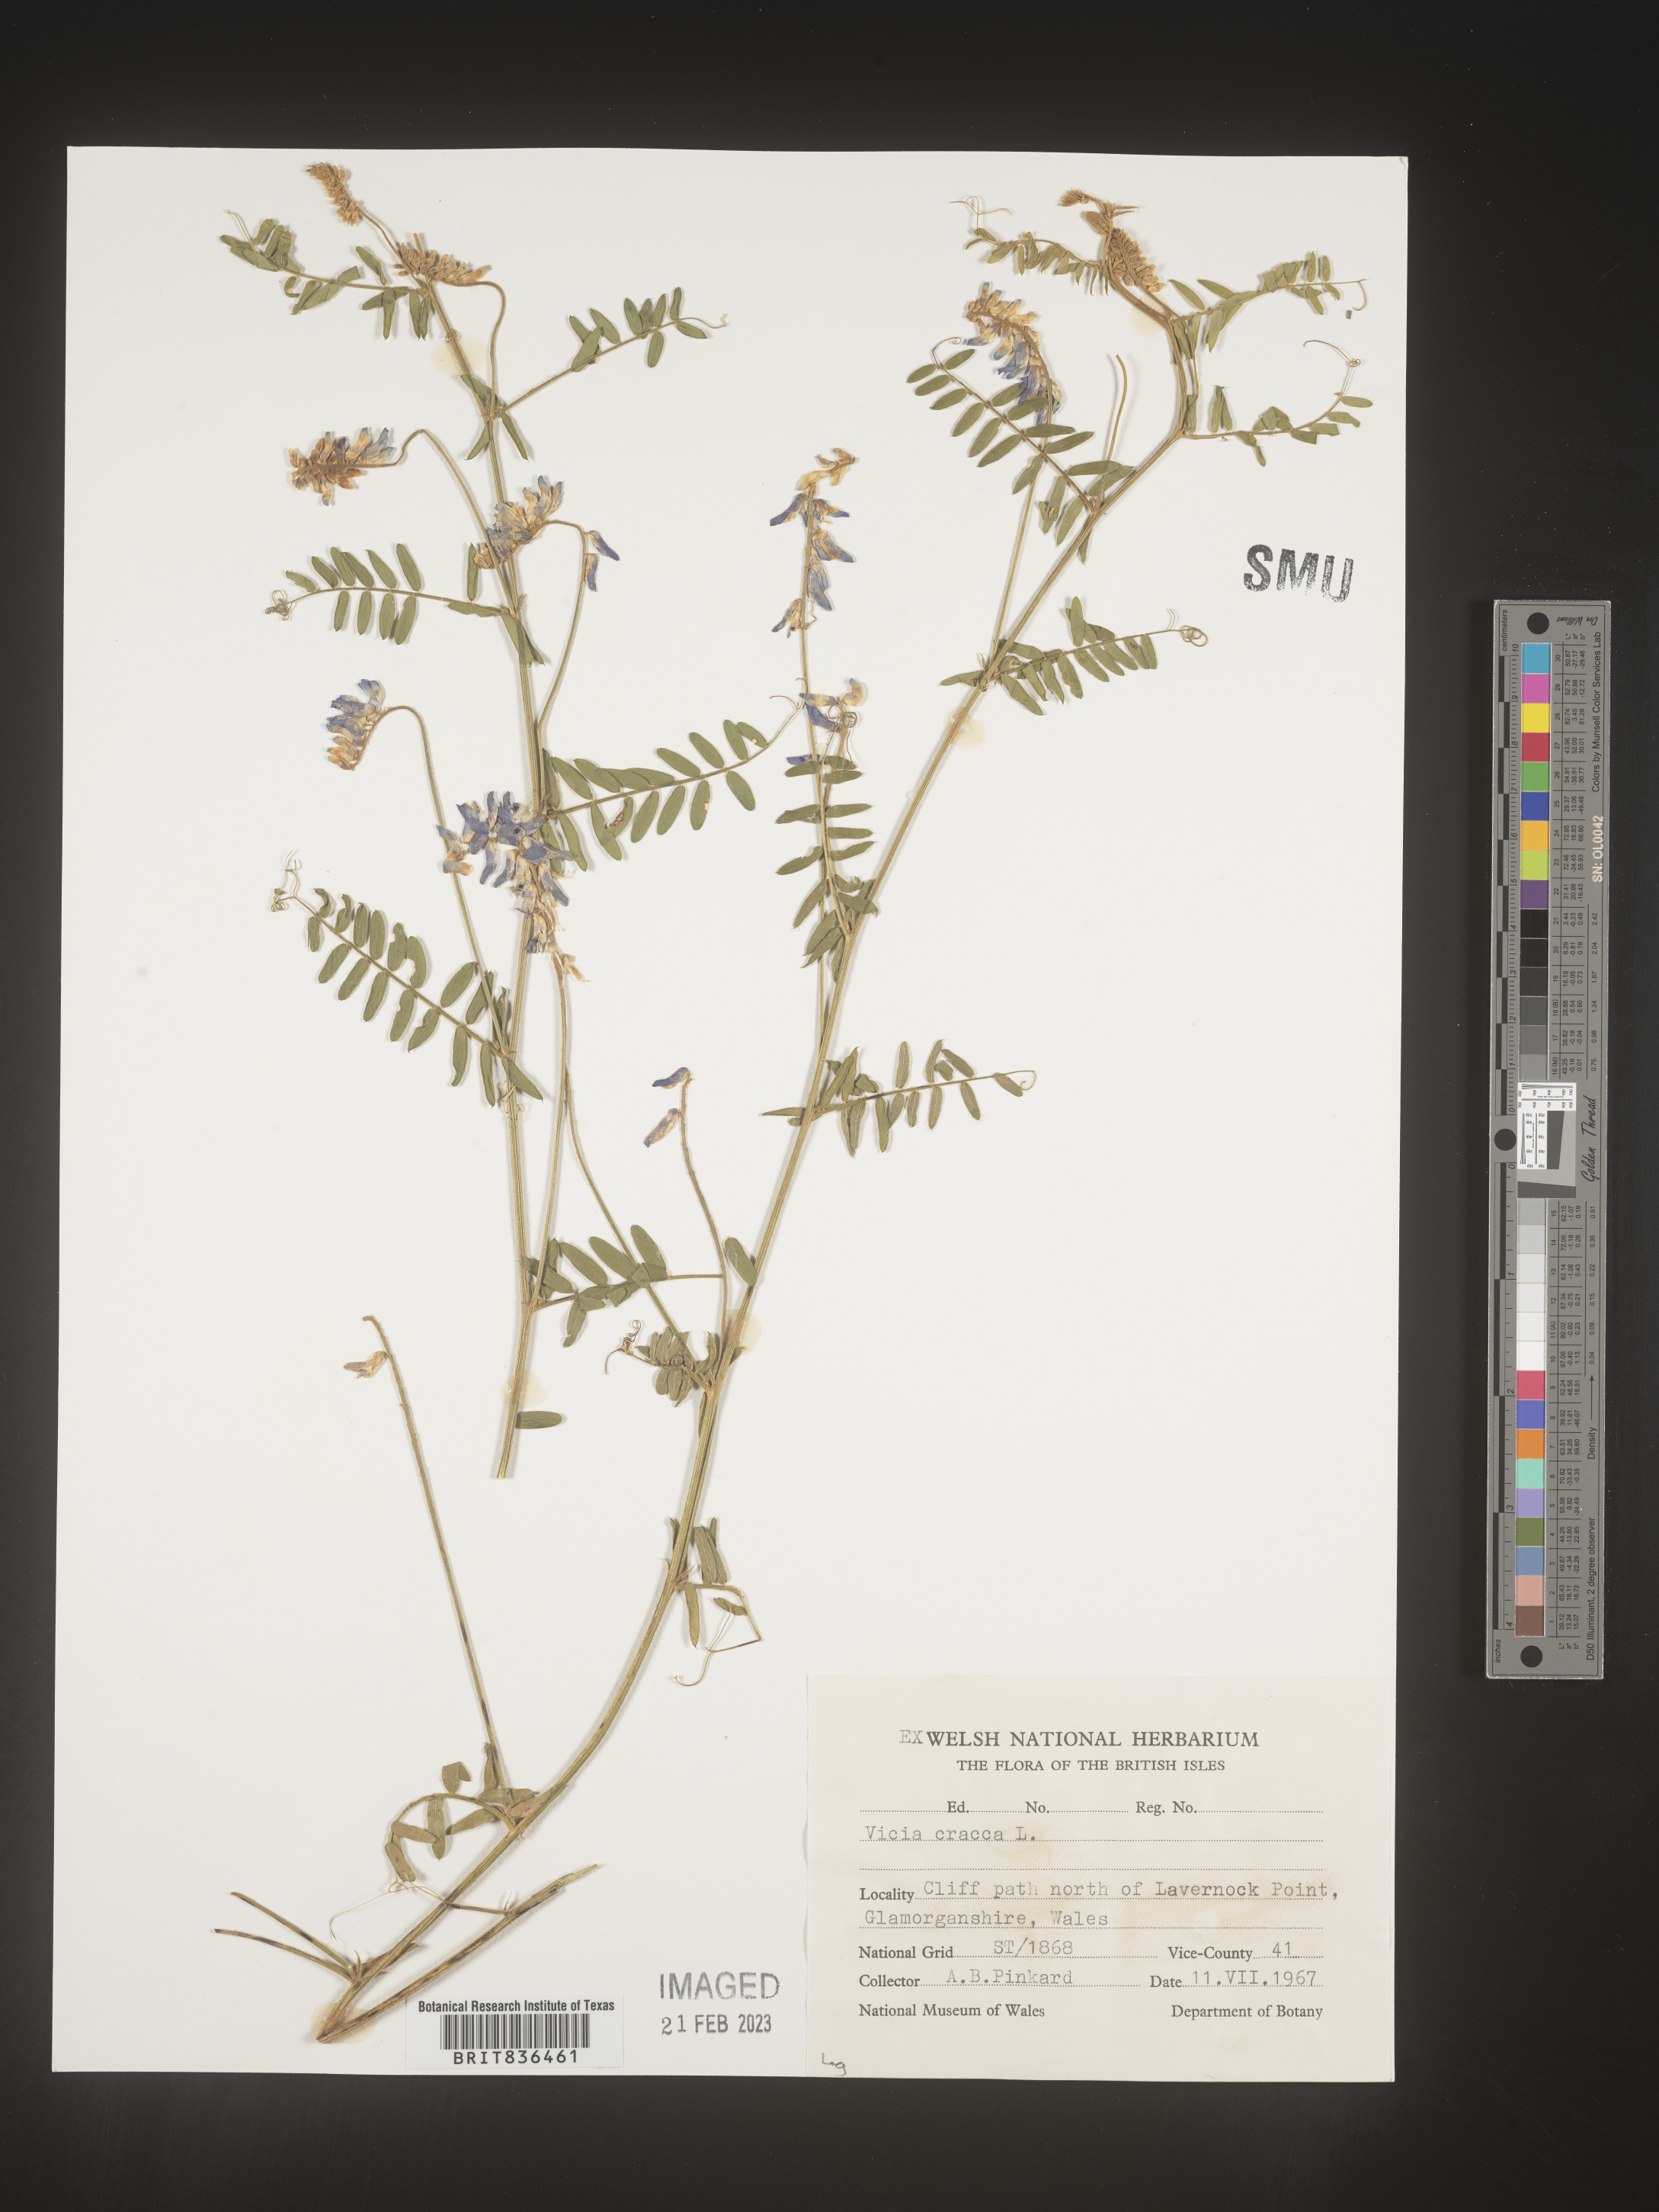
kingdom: Plantae
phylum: Tracheophyta
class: Magnoliopsida
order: Fabales
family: Fabaceae
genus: Vicia
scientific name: Vicia
